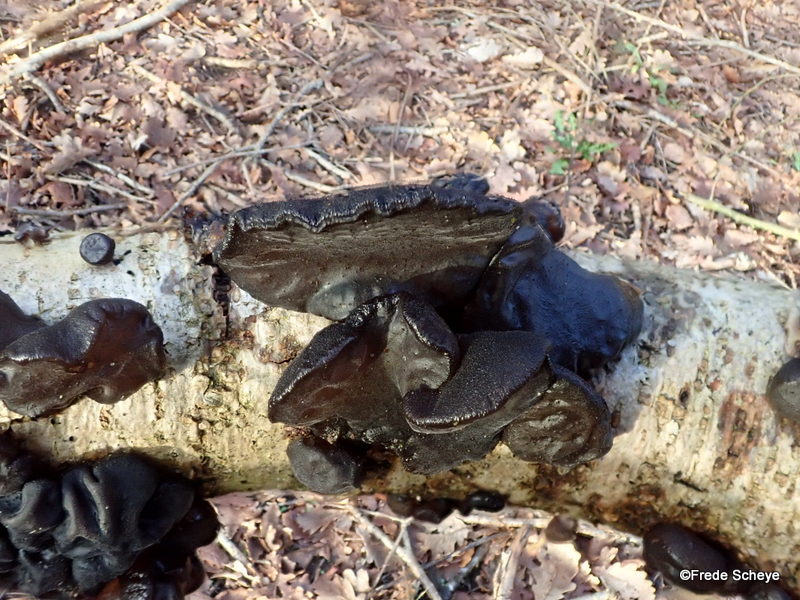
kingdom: Fungi
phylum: Basidiomycota
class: Agaricomycetes
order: Auriculariales
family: Auriculariaceae
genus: Exidia
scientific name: Exidia glandulosa
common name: ege-bævretop
